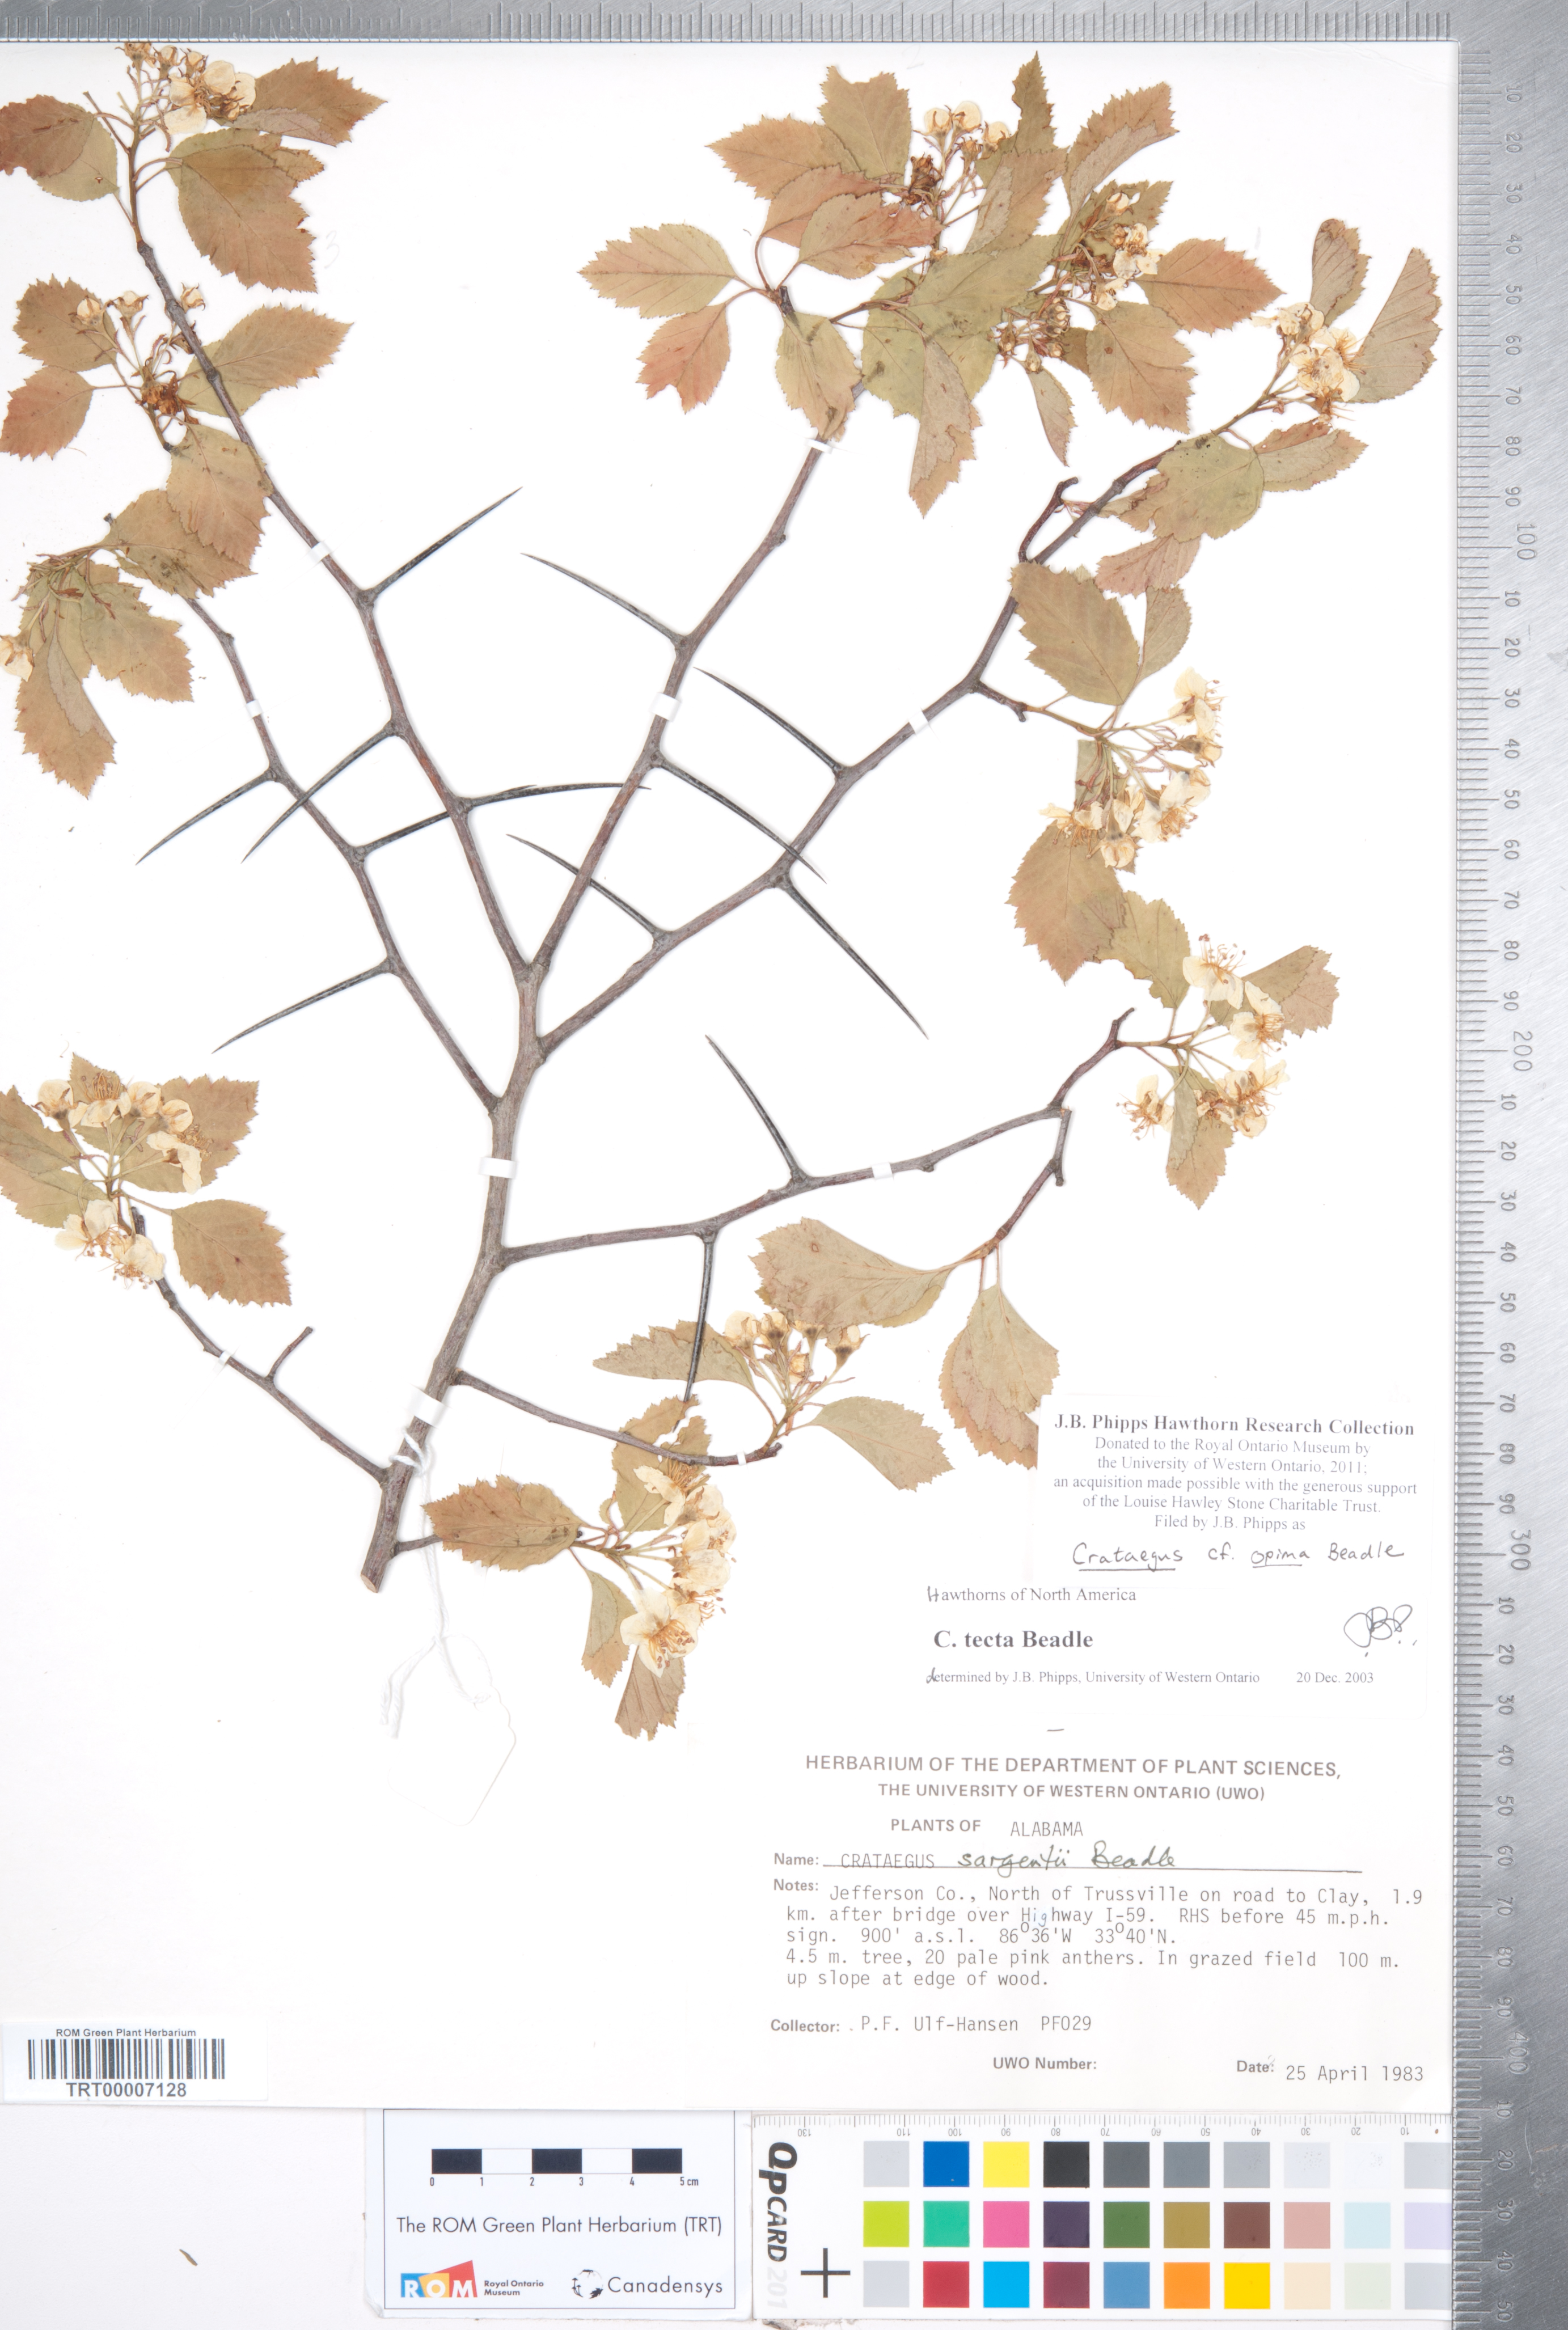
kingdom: Plantae
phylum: Tracheophyta
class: Magnoliopsida
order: Rosales
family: Rosaceae
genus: Crataegus
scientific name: Crataegus pulcherrima
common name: Beautiful hawthorn
